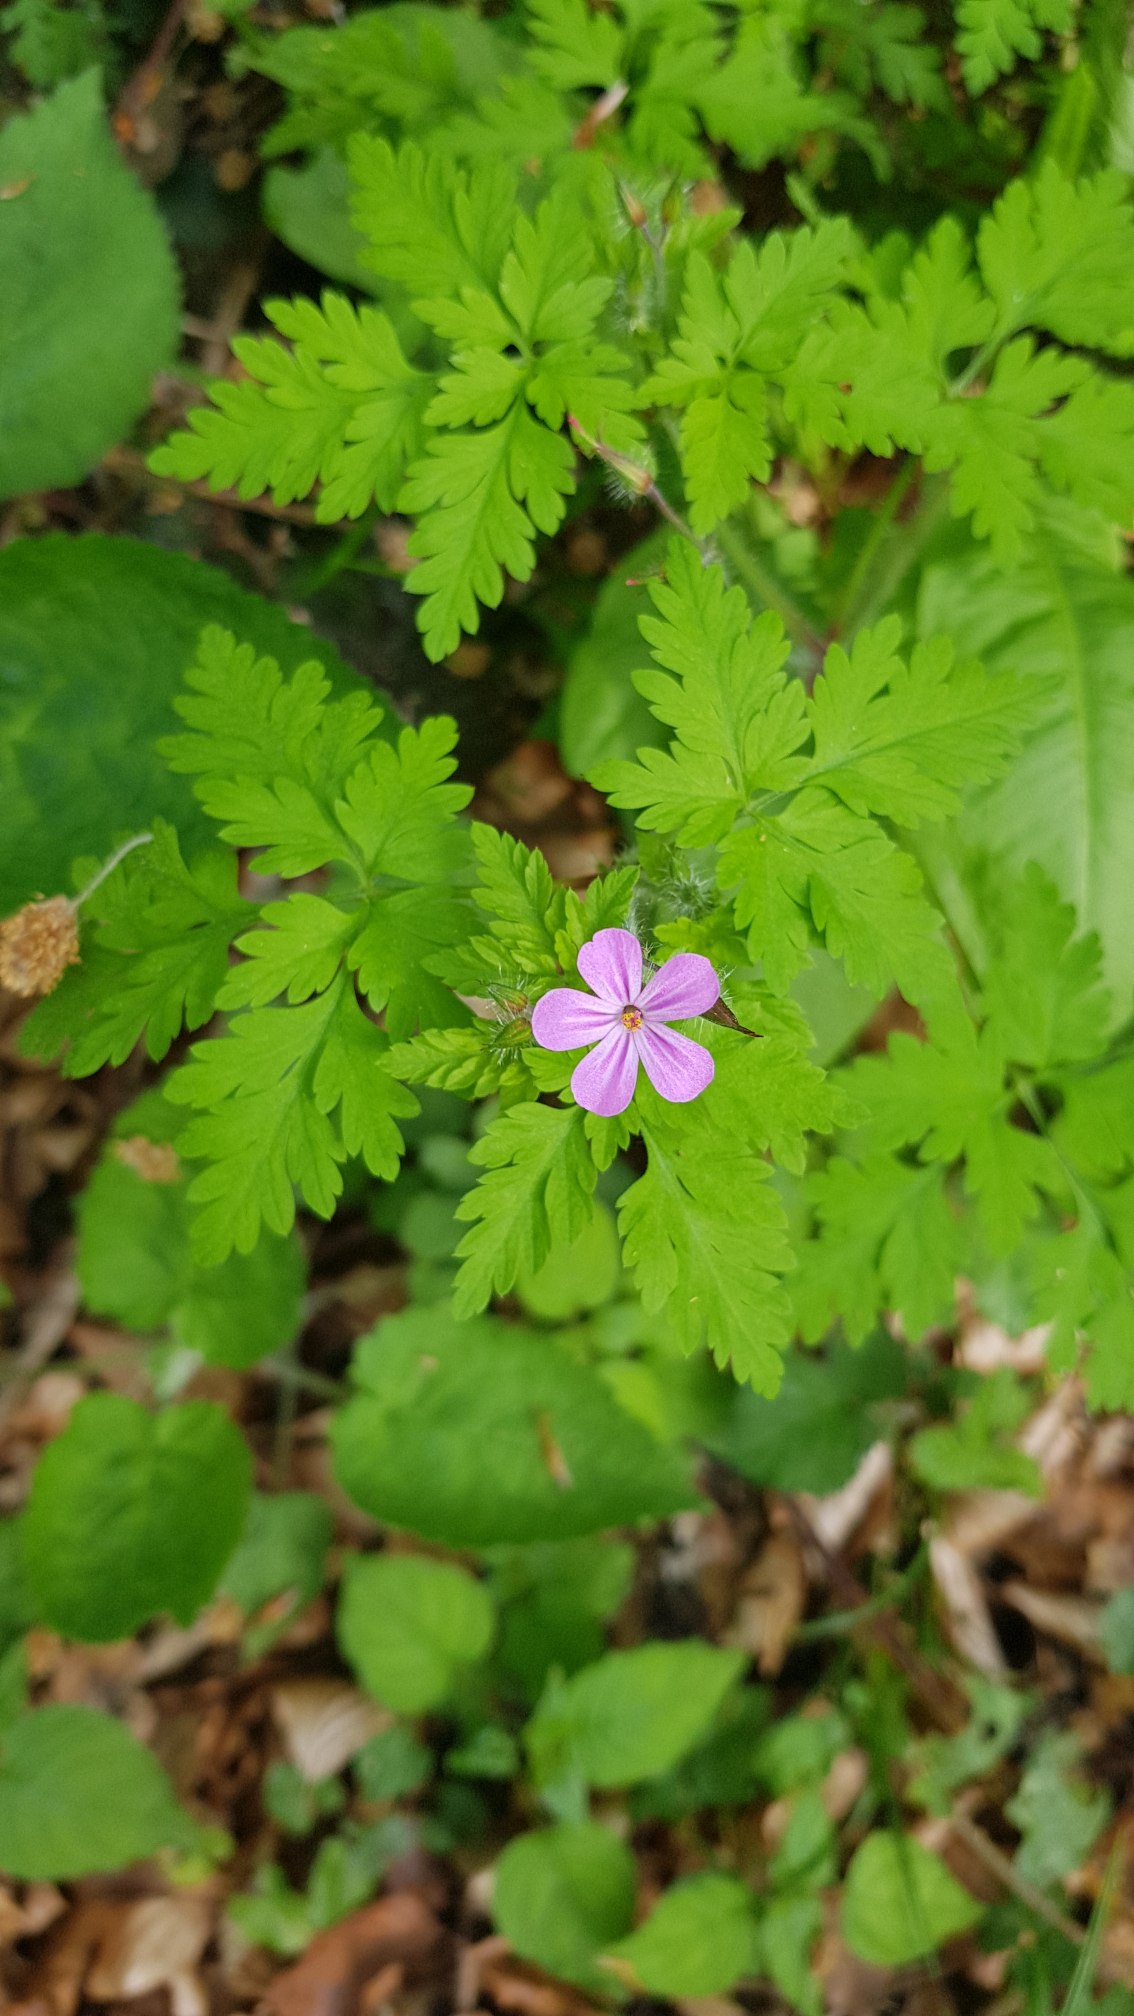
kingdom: Plantae
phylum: Tracheophyta
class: Magnoliopsida
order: Geraniales
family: Geraniaceae
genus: Geranium
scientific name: Geranium robertianum
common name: Stinkende storkenæb
